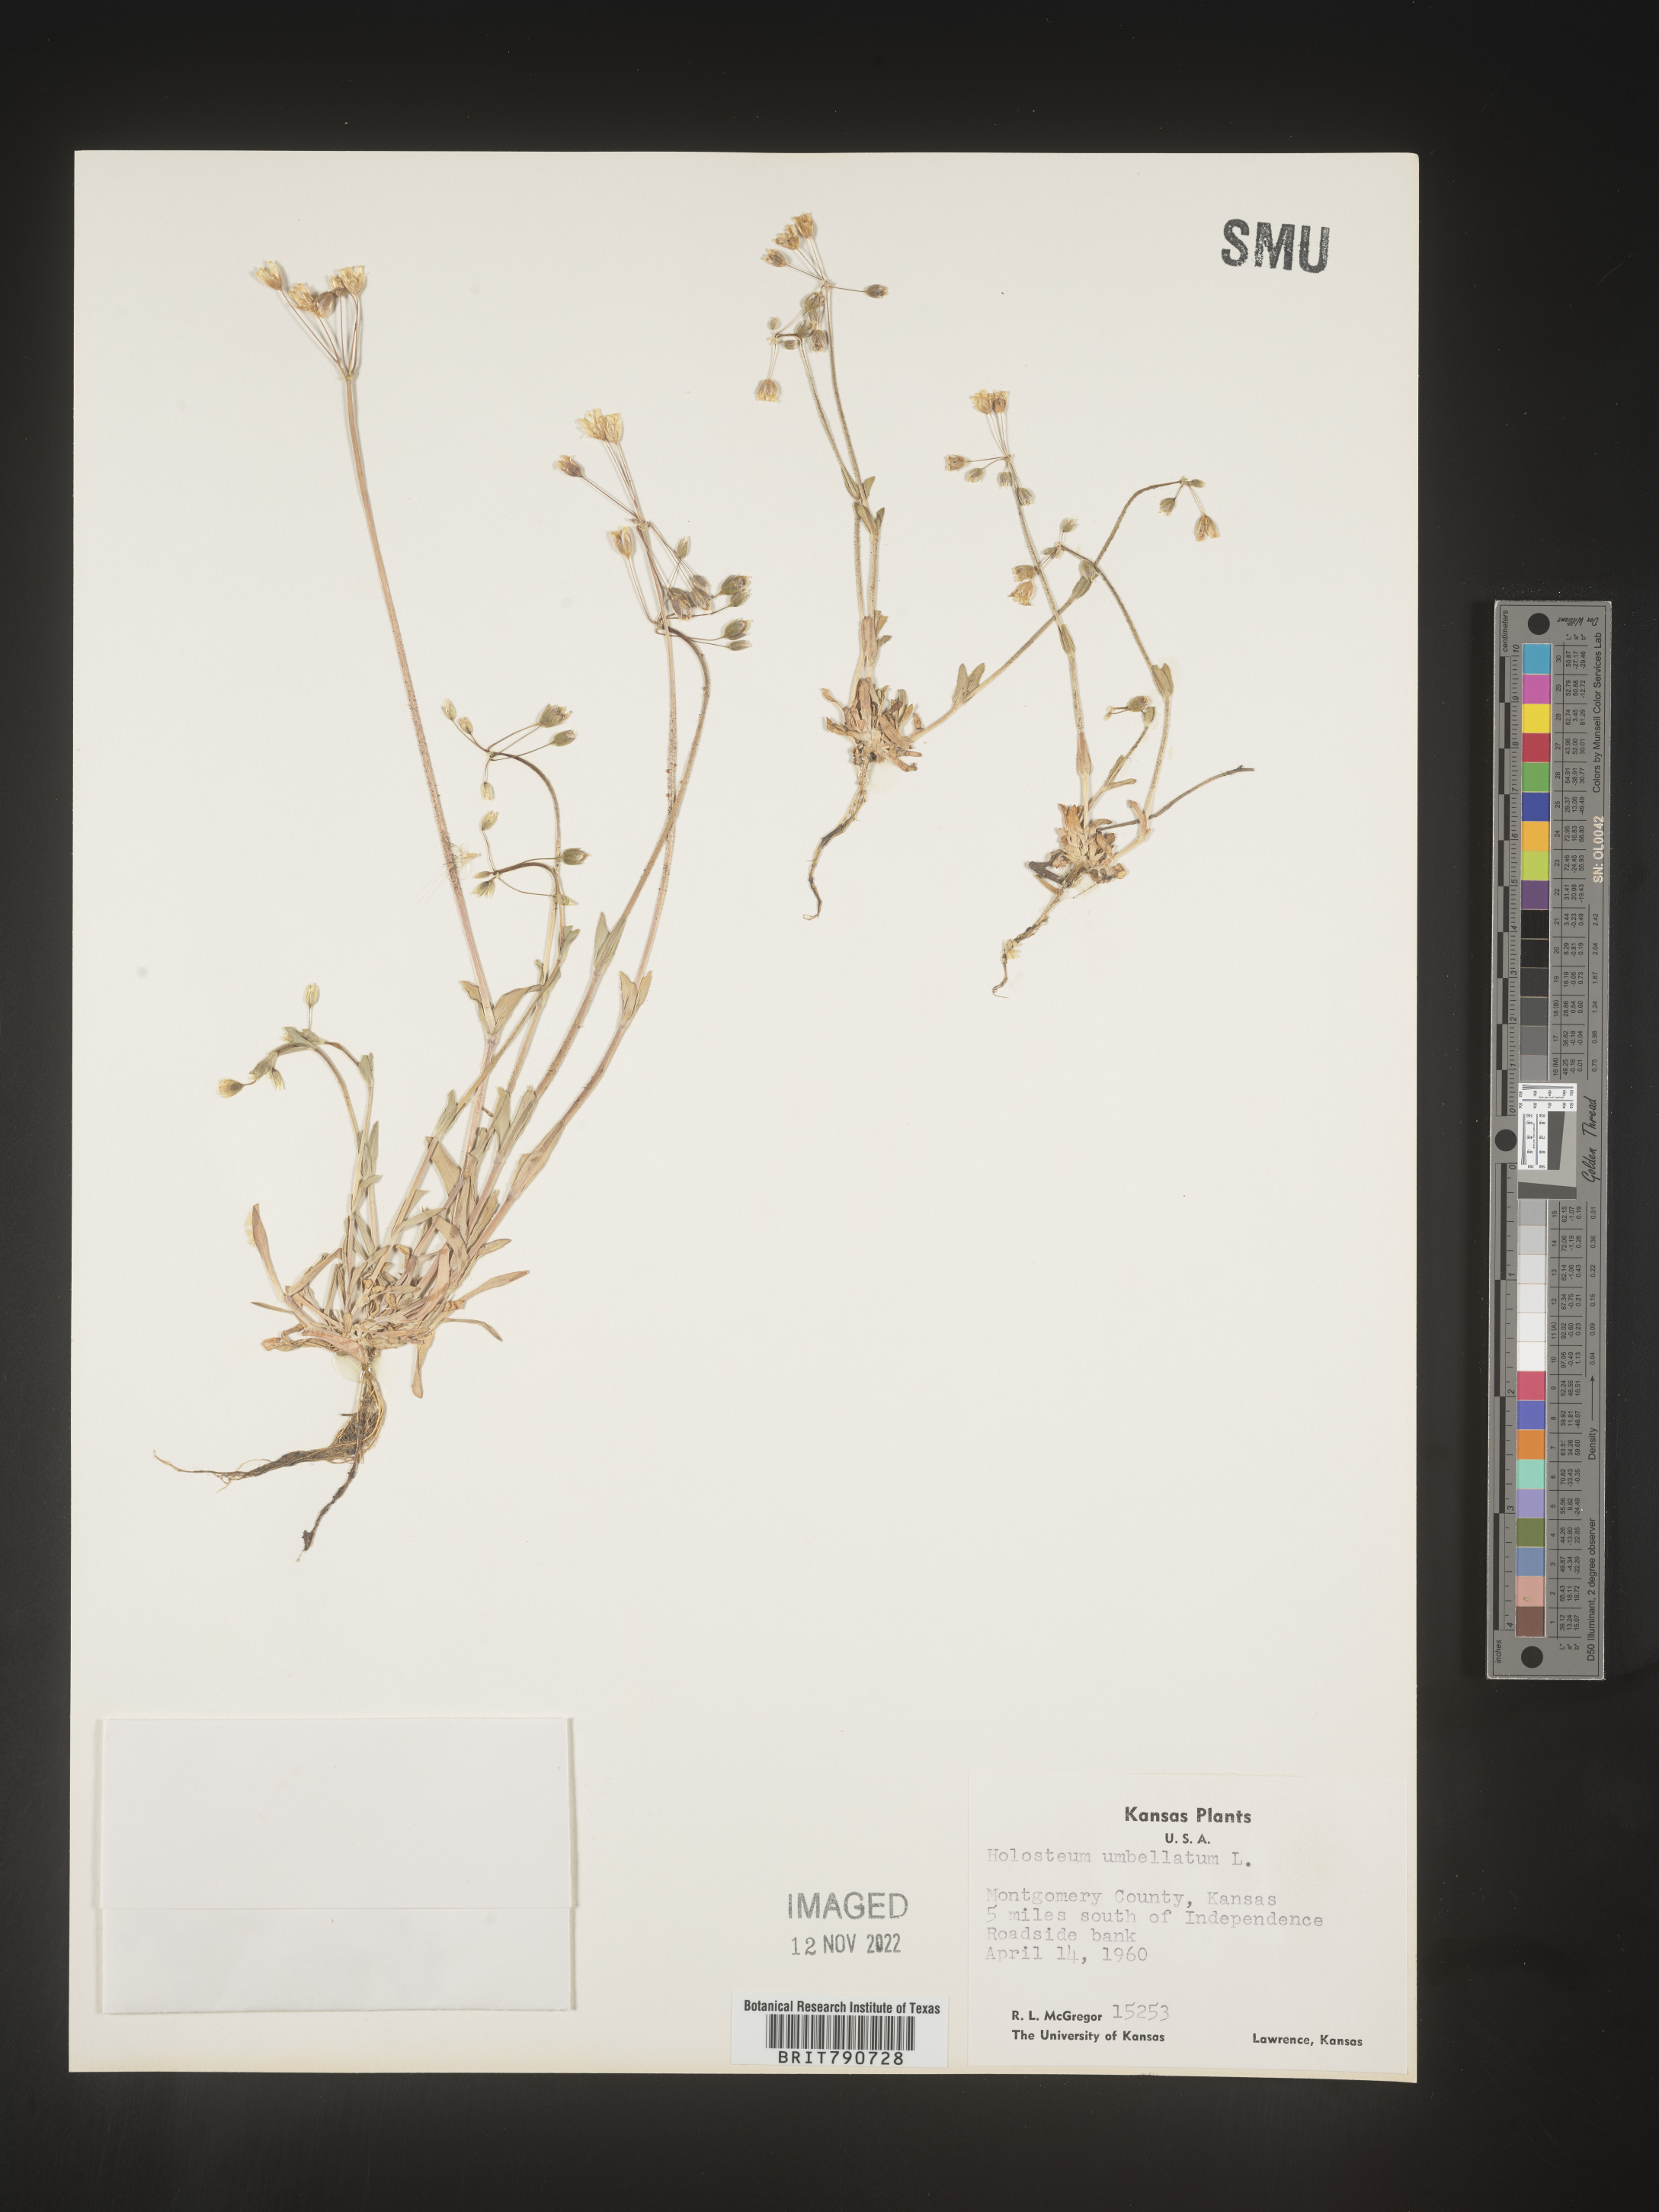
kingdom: Plantae
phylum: Tracheophyta
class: Magnoliopsida
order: Caryophyllales
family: Caryophyllaceae
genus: Holosteum
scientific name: Holosteum
